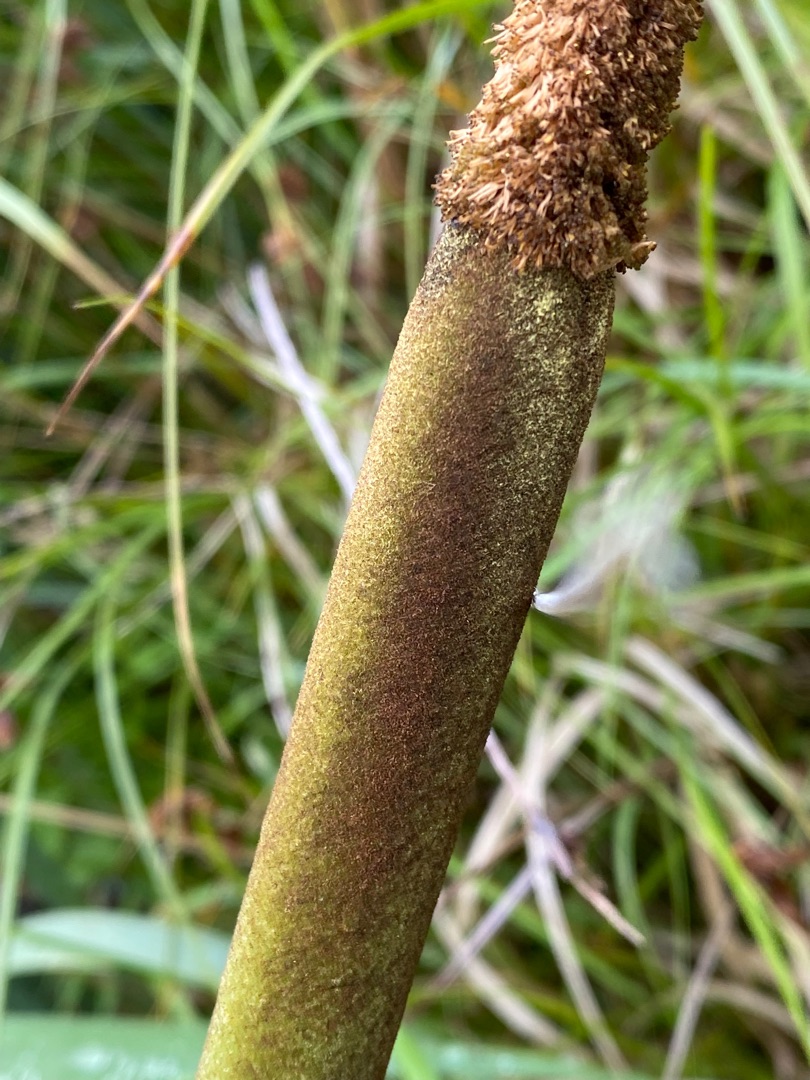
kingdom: Plantae
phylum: Tracheophyta
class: Liliopsida
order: Poales
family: Typhaceae
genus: Typha
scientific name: Typha latifolia
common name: Bredbladet dunhammer
